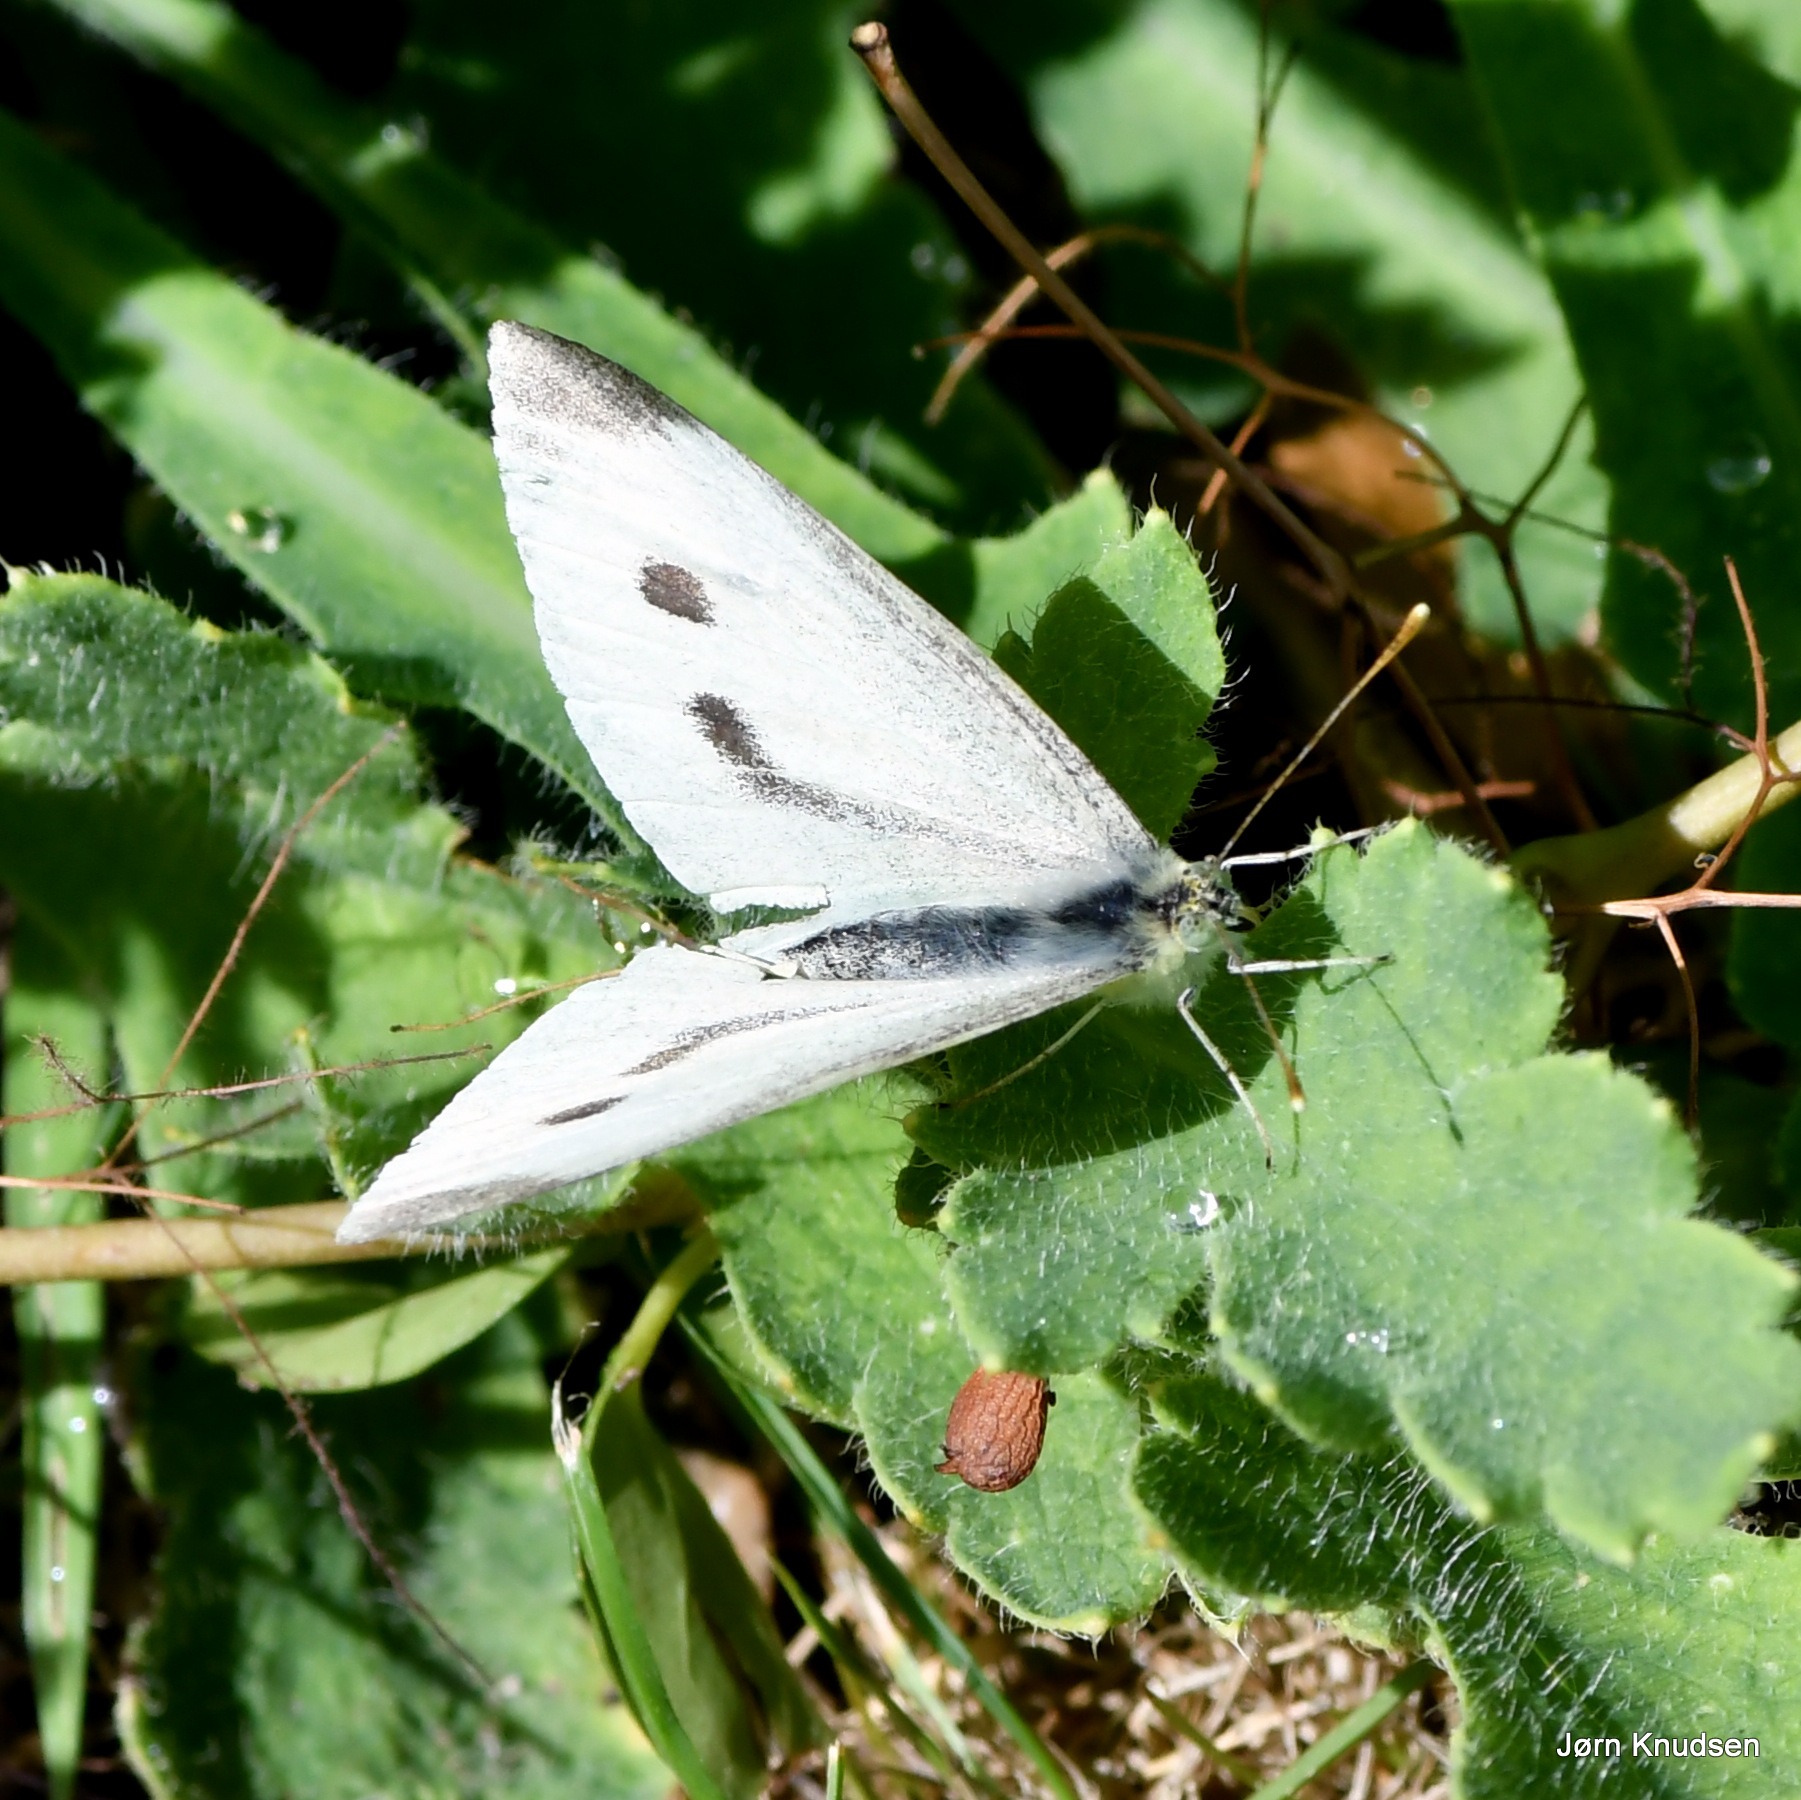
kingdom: Animalia
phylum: Arthropoda
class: Insecta
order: Lepidoptera
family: Pieridae
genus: Pieris
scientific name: Pieris rapae
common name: Lille kålsommerfugl
